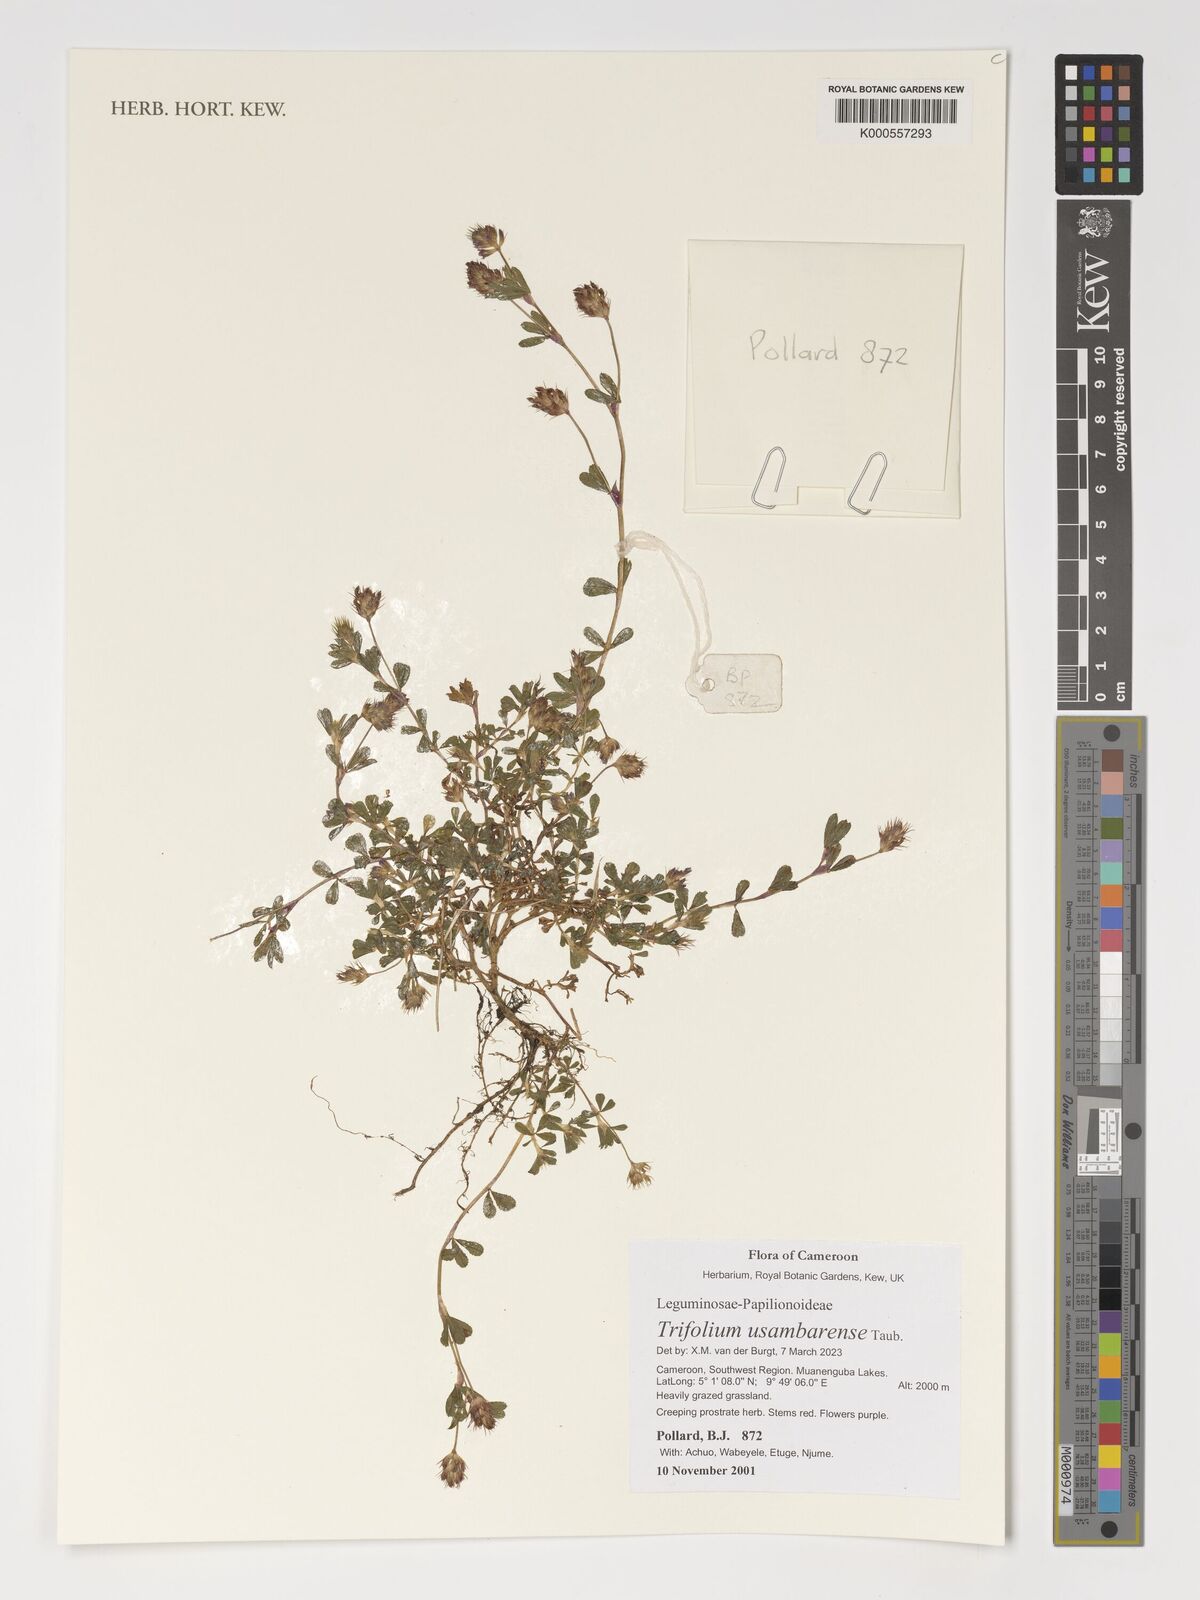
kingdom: Plantae
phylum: Tracheophyta
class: Magnoliopsida
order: Fabales
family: Fabaceae
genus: Trifolium
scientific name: Trifolium usambarense
